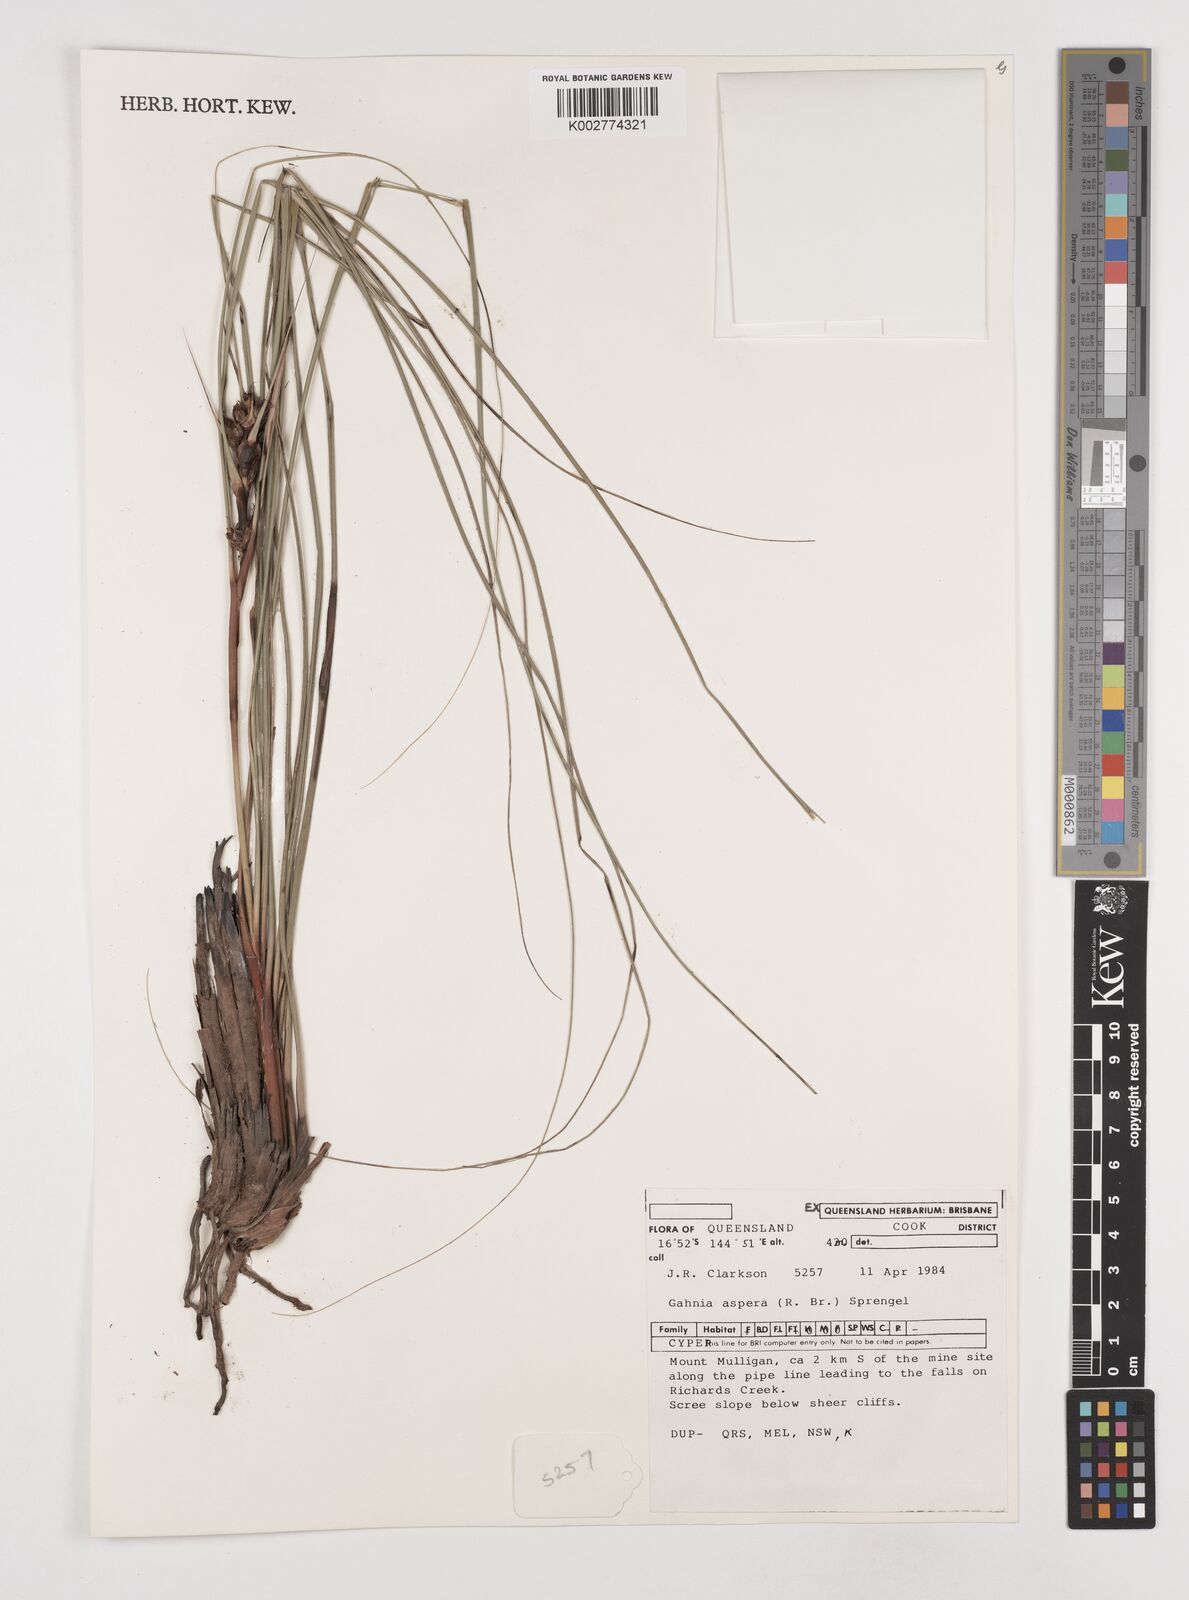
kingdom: Plantae
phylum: Tracheophyta
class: Liliopsida
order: Poales
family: Cyperaceae
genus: Gahnia
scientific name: Gahnia aspera
